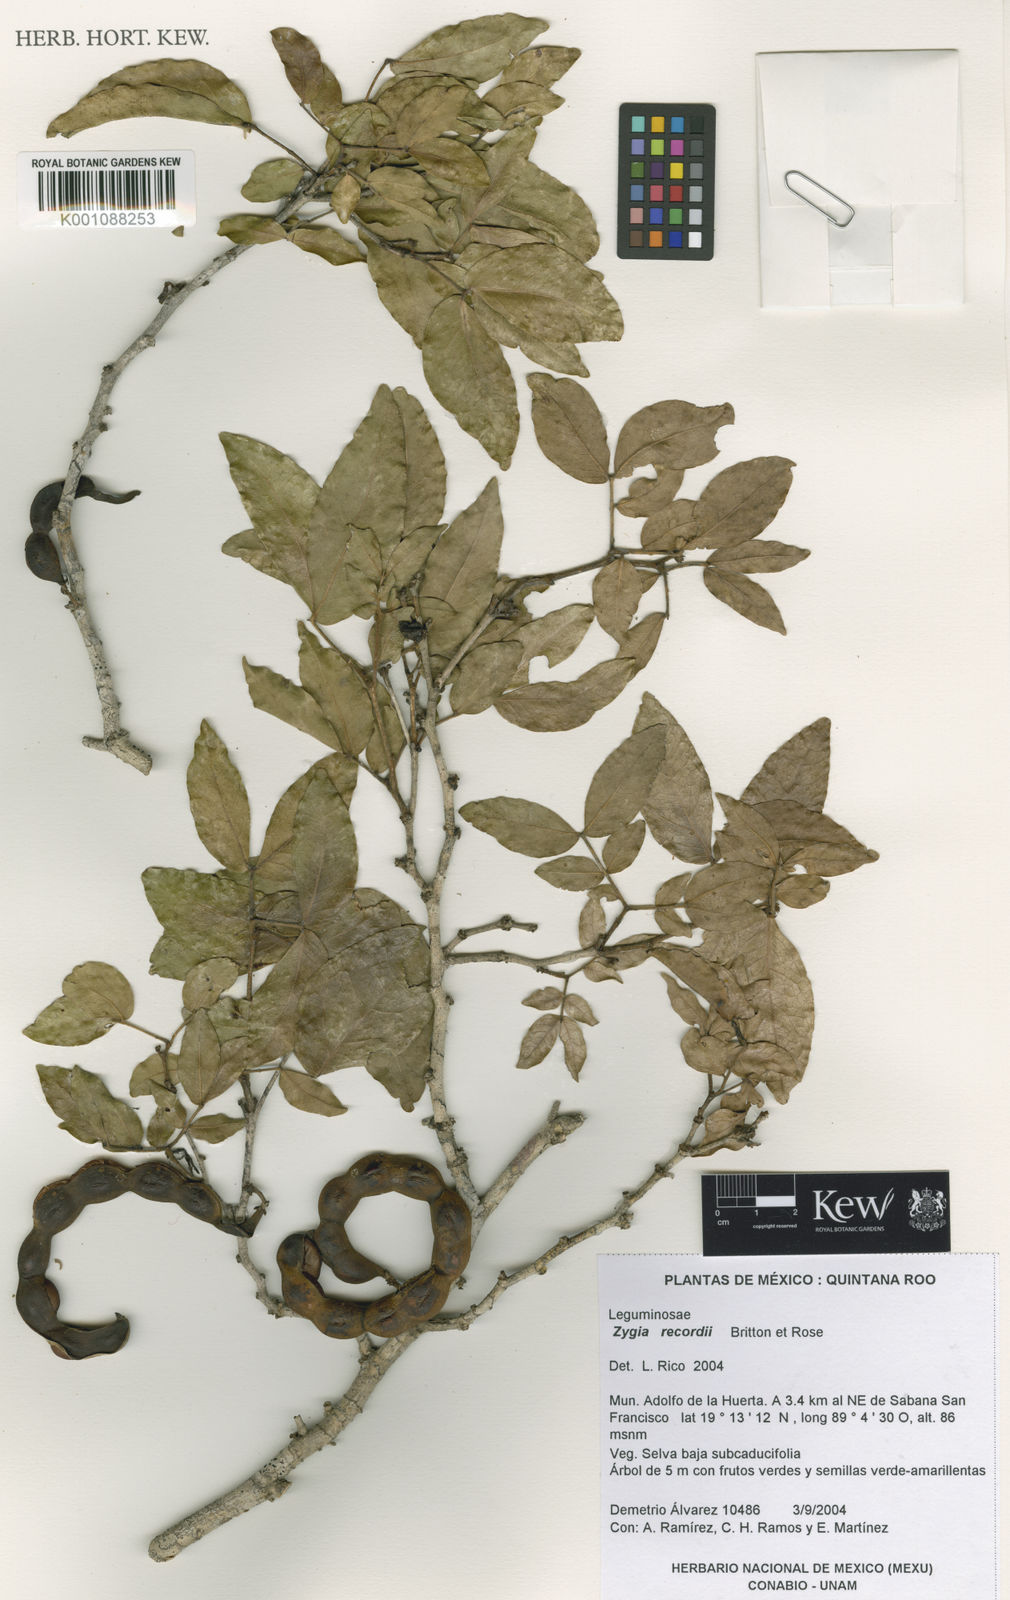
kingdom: Plantae
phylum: Tracheophyta
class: Magnoliopsida
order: Fabales
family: Fabaceae
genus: Zygia
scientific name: Zygia conzattii
